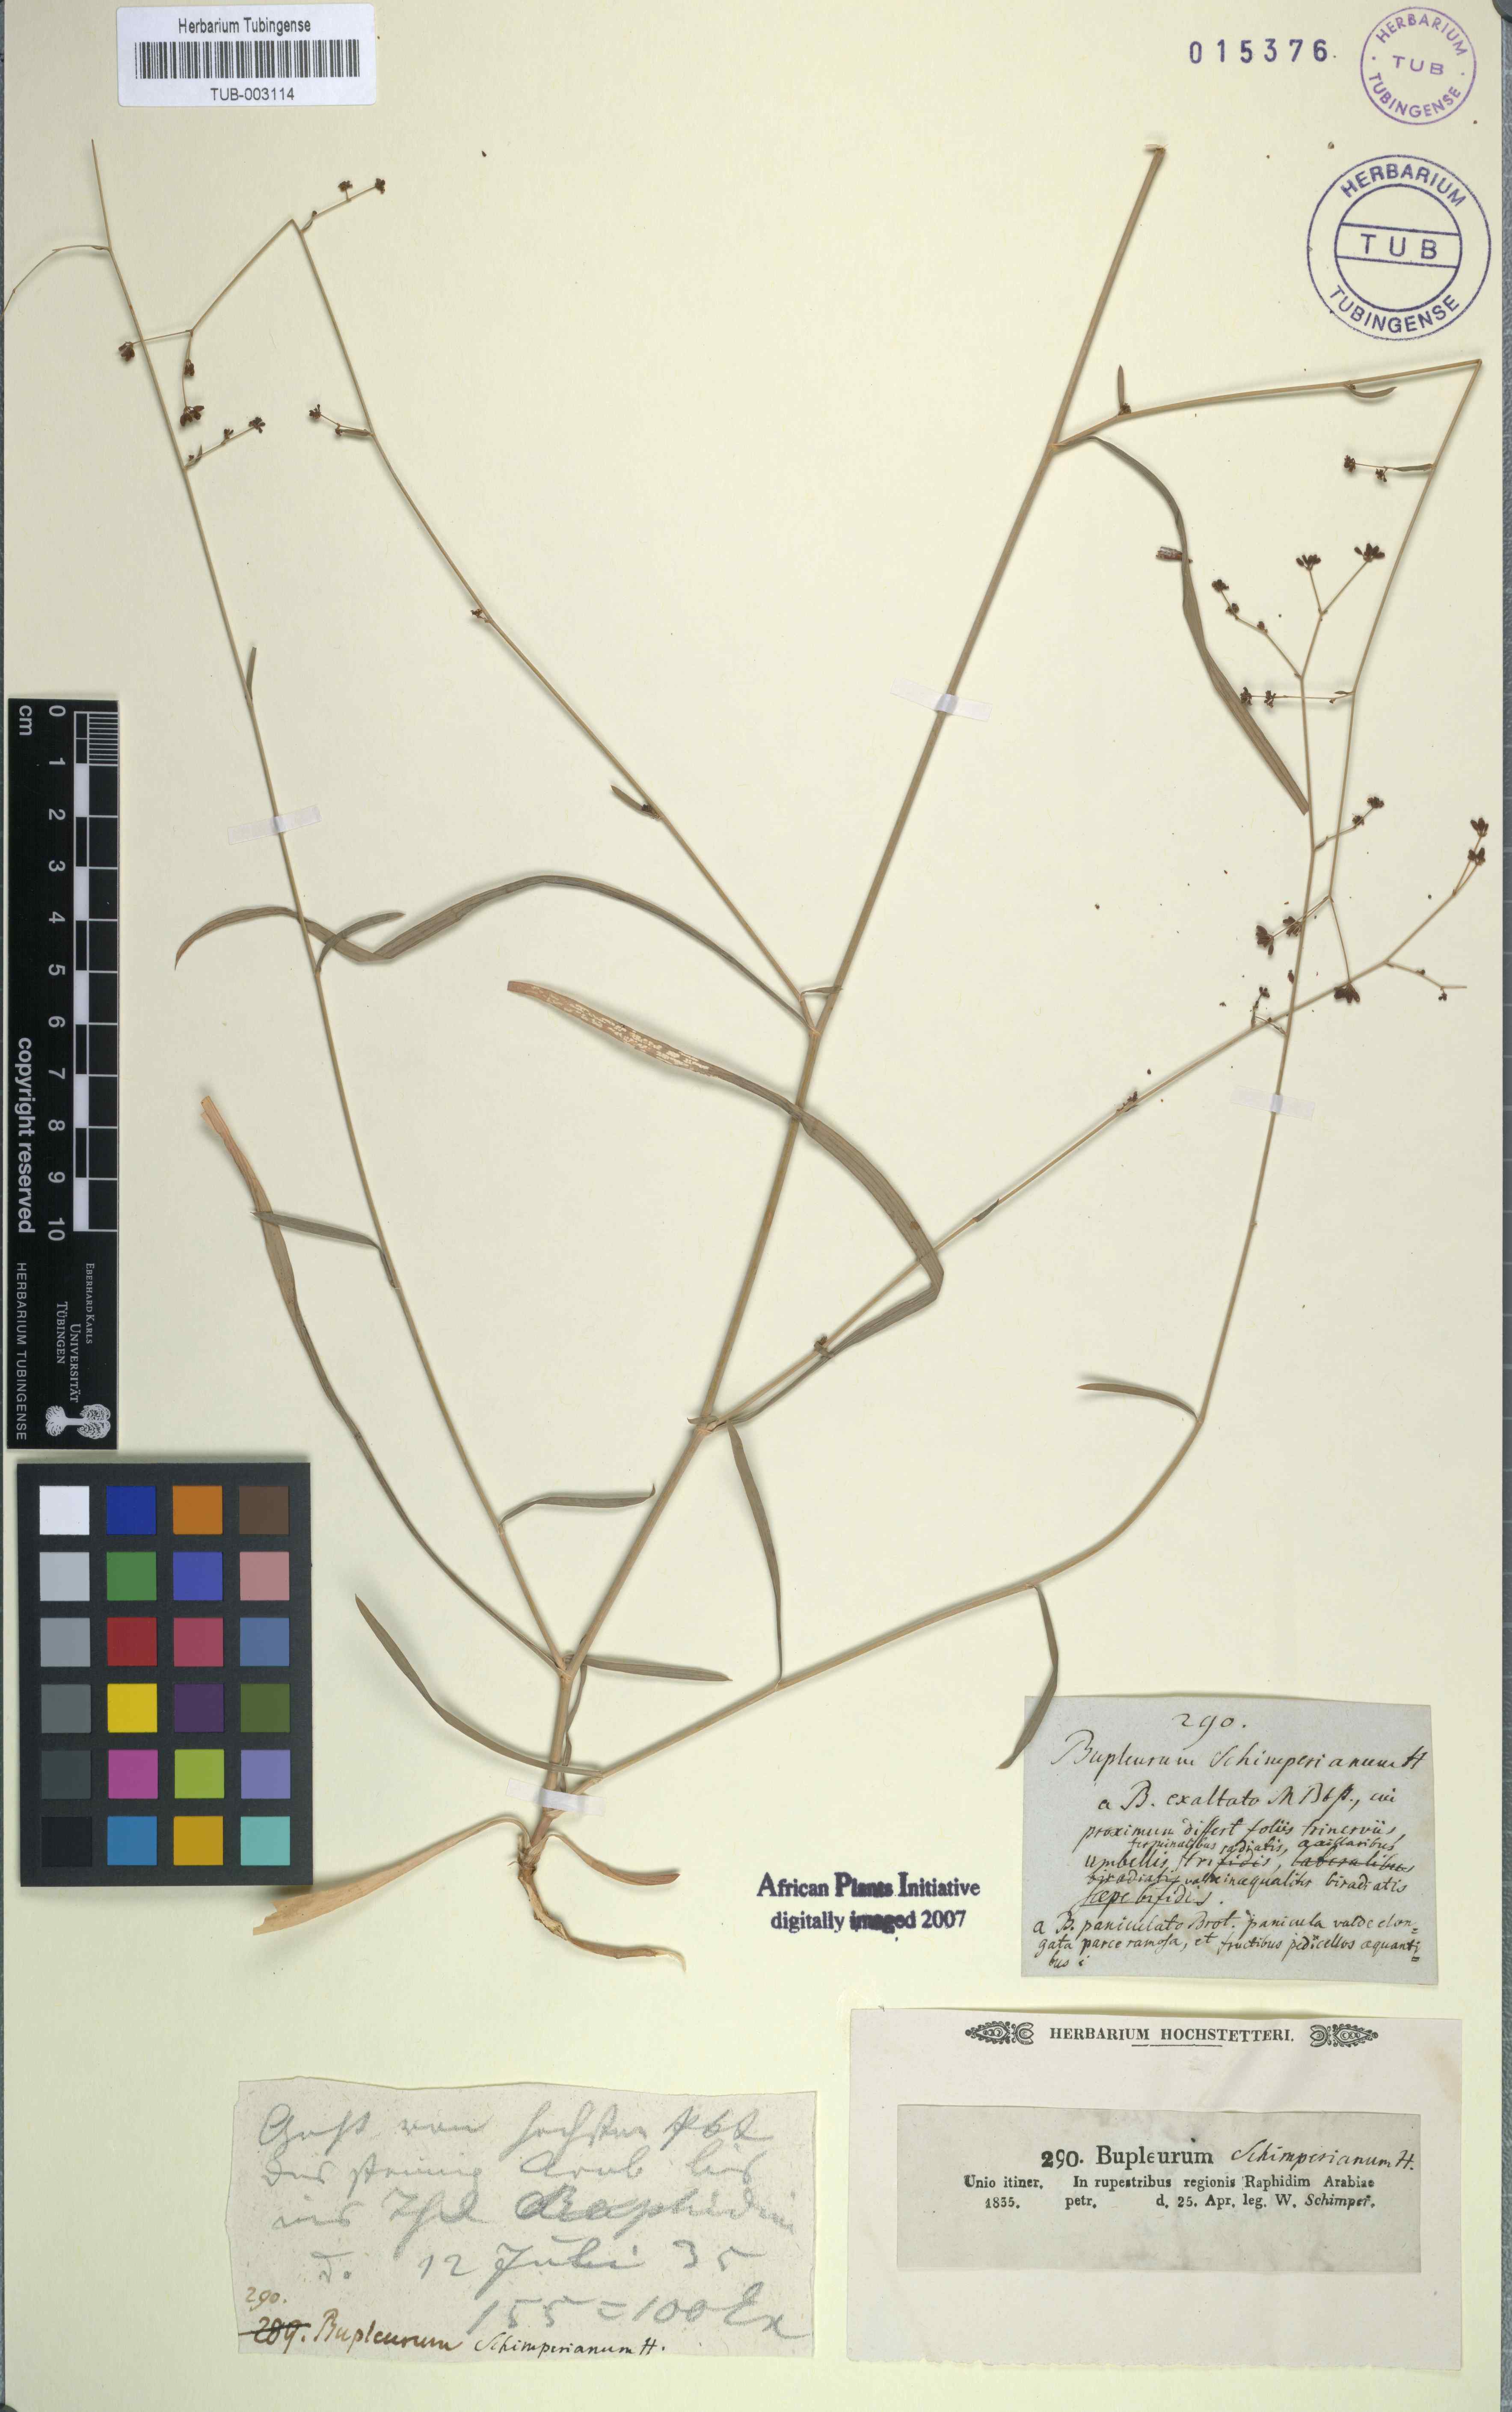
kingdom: Plantae
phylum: Tracheophyta
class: Magnoliopsida
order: Apiales
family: Apiaceae
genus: Bupleurum
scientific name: Bupleurum
